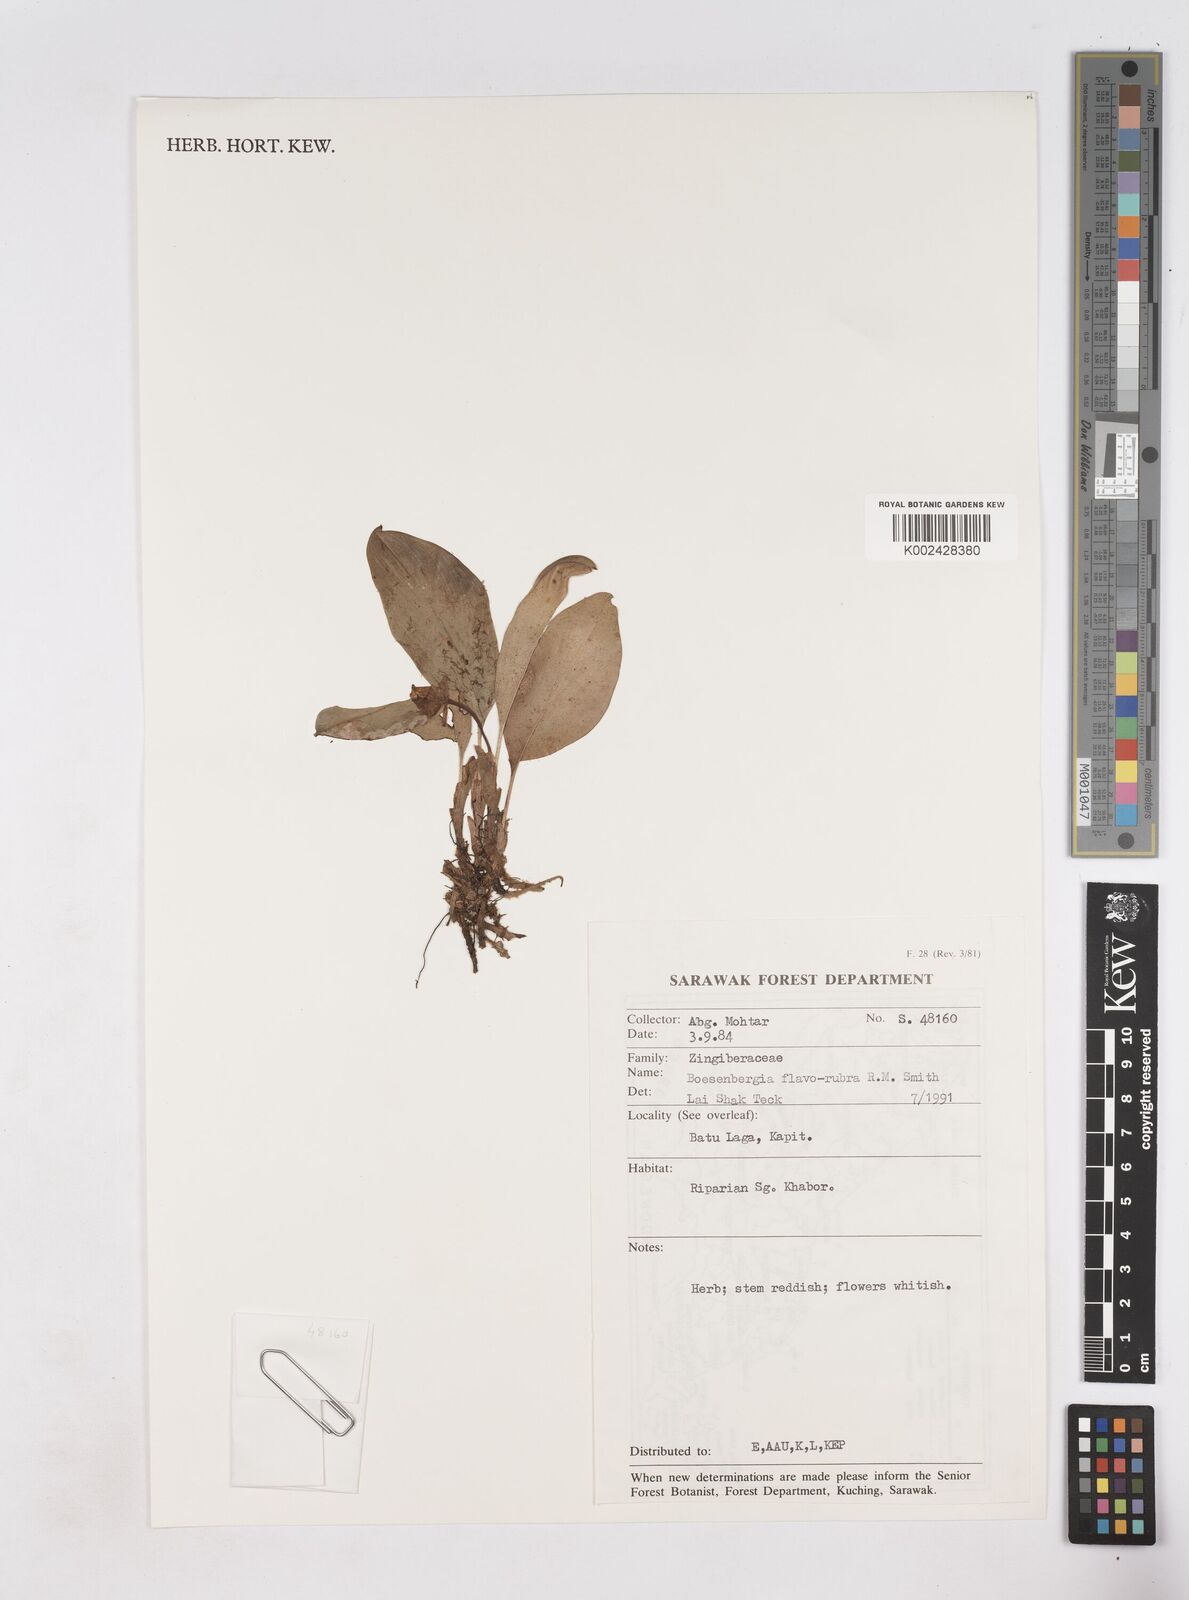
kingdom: Plantae
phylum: Tracheophyta
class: Liliopsida
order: Zingiberales
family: Zingiberaceae
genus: Boesenbergia
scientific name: Boesenbergia flavorubra
